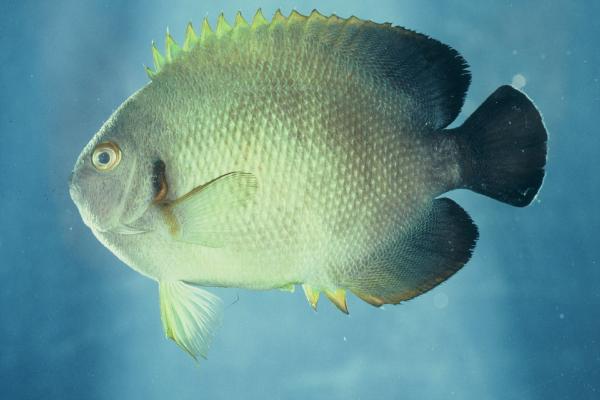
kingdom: Animalia
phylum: Chordata
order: Perciformes
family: Pomacanthidae
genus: Centropyge
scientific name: Centropyge vrolikii
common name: Pearlscale angelfish
